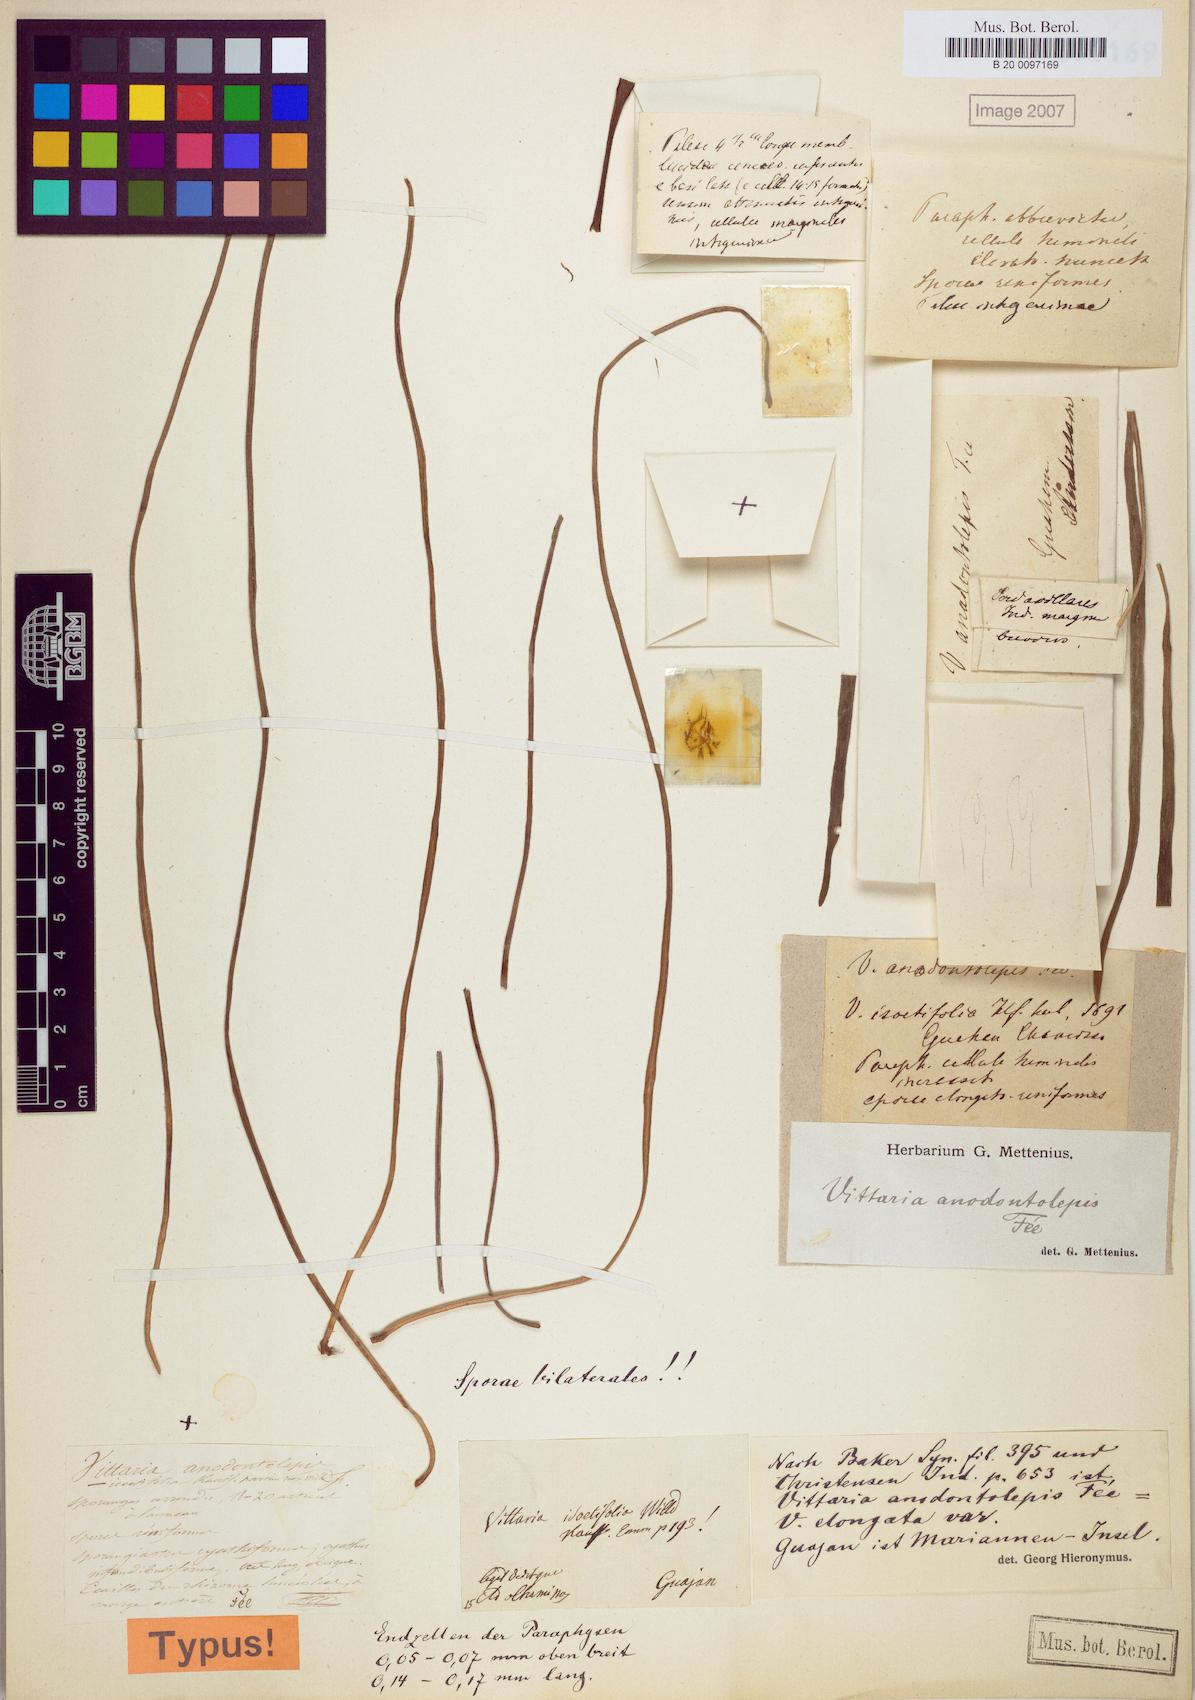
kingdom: Plantae
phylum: Tracheophyta
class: Polypodiopsida
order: Polypodiales
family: Pteridaceae
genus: Haplopteris
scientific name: Haplopteris elongata
